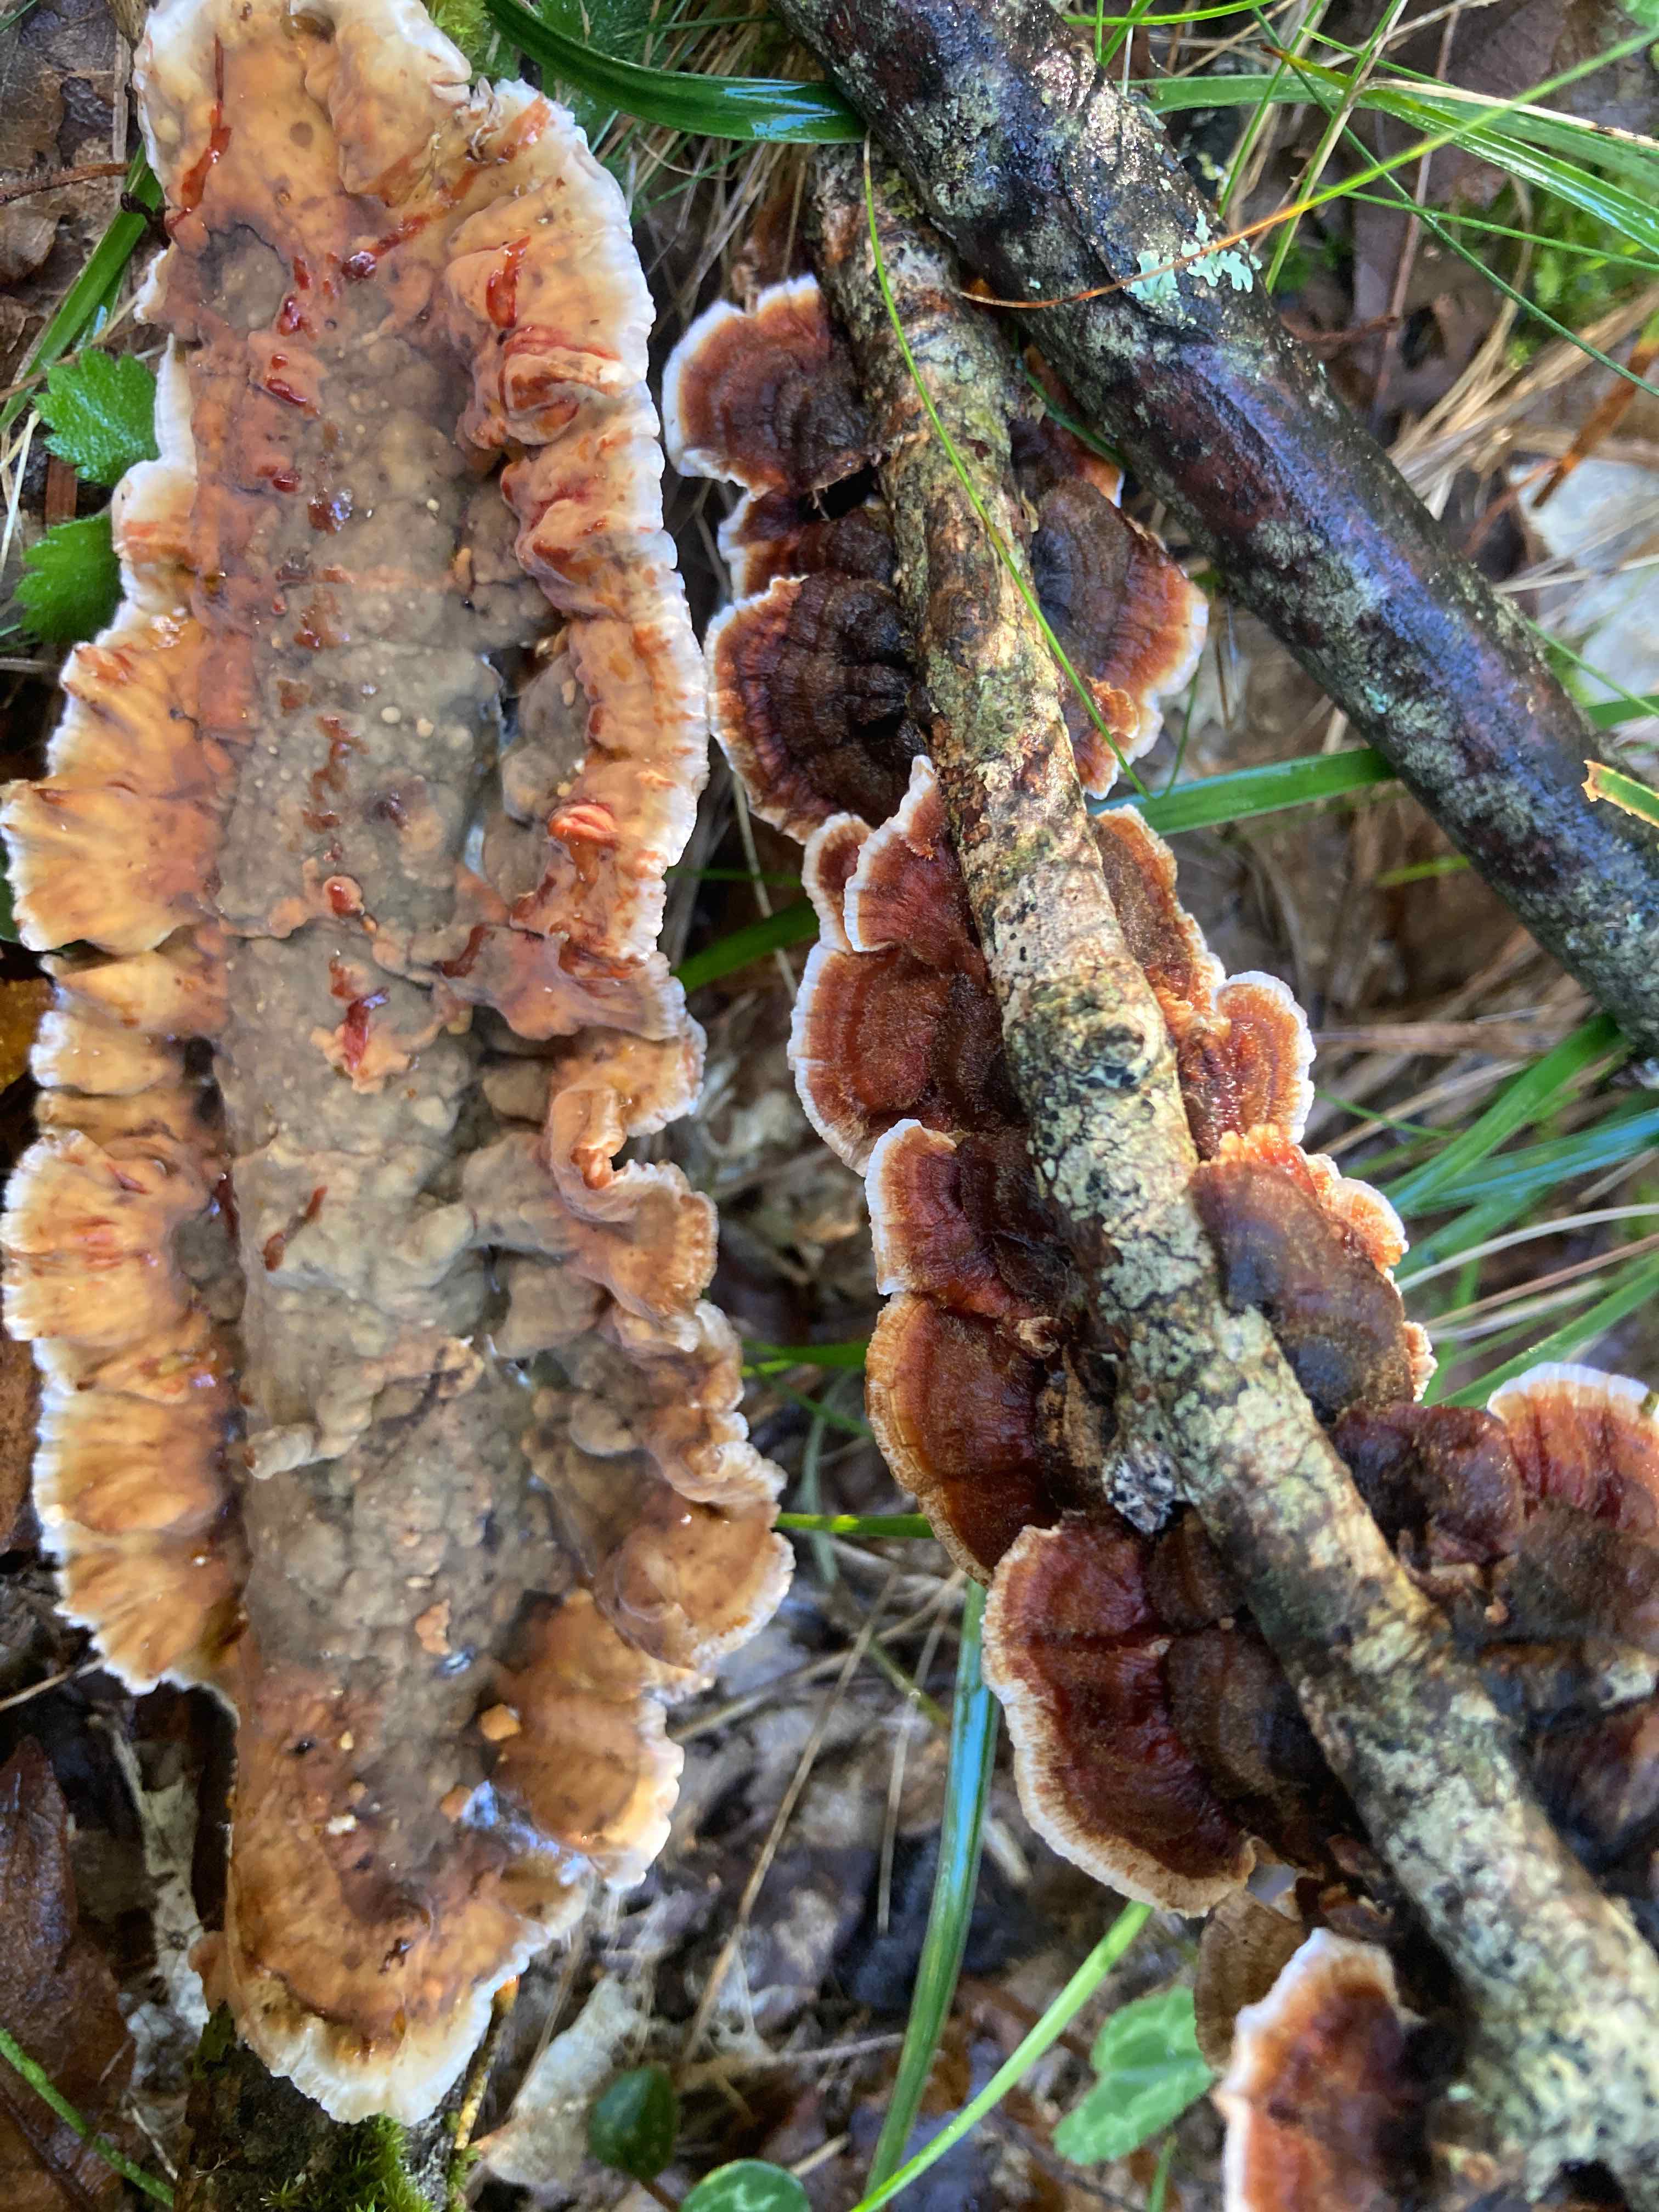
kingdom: Fungi
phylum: Basidiomycota
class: Agaricomycetes
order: Russulales
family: Stereaceae
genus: Stereum
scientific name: Stereum gausapatum
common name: tynd lædersvamp
